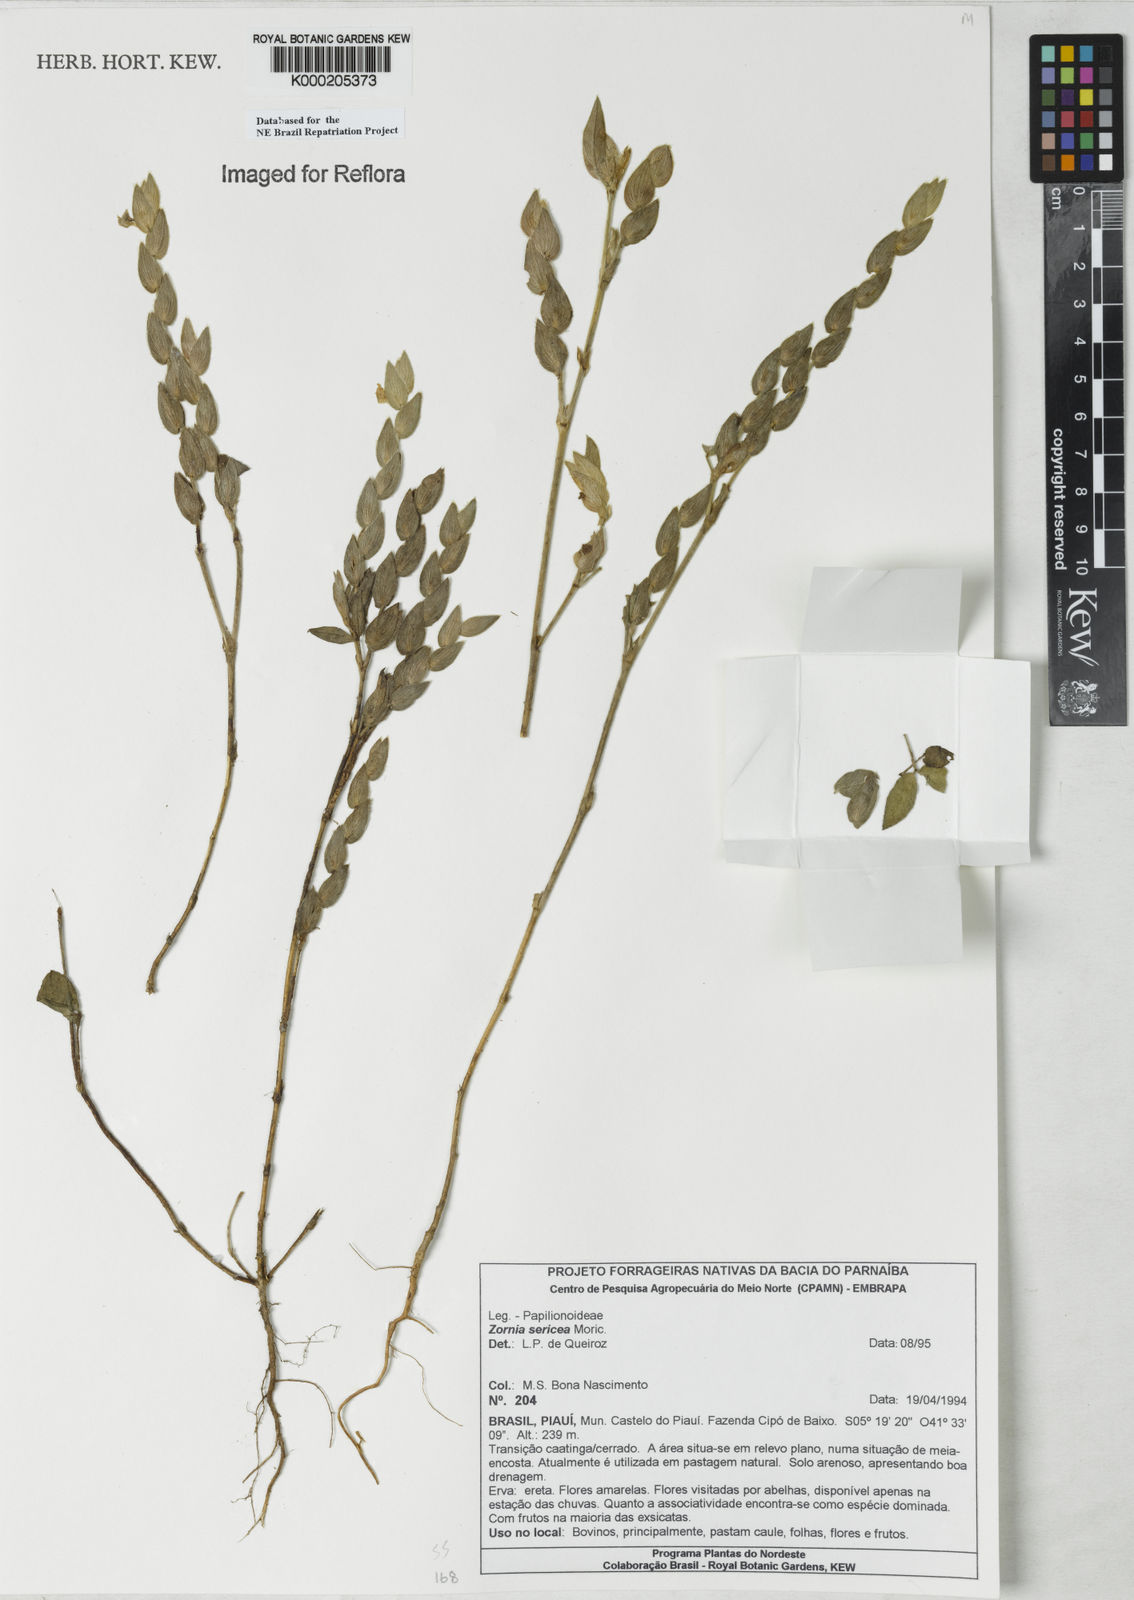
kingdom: Plantae
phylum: Tracheophyta
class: Magnoliopsida
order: Fabales
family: Fabaceae
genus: Zornia
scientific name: Zornia sericea
